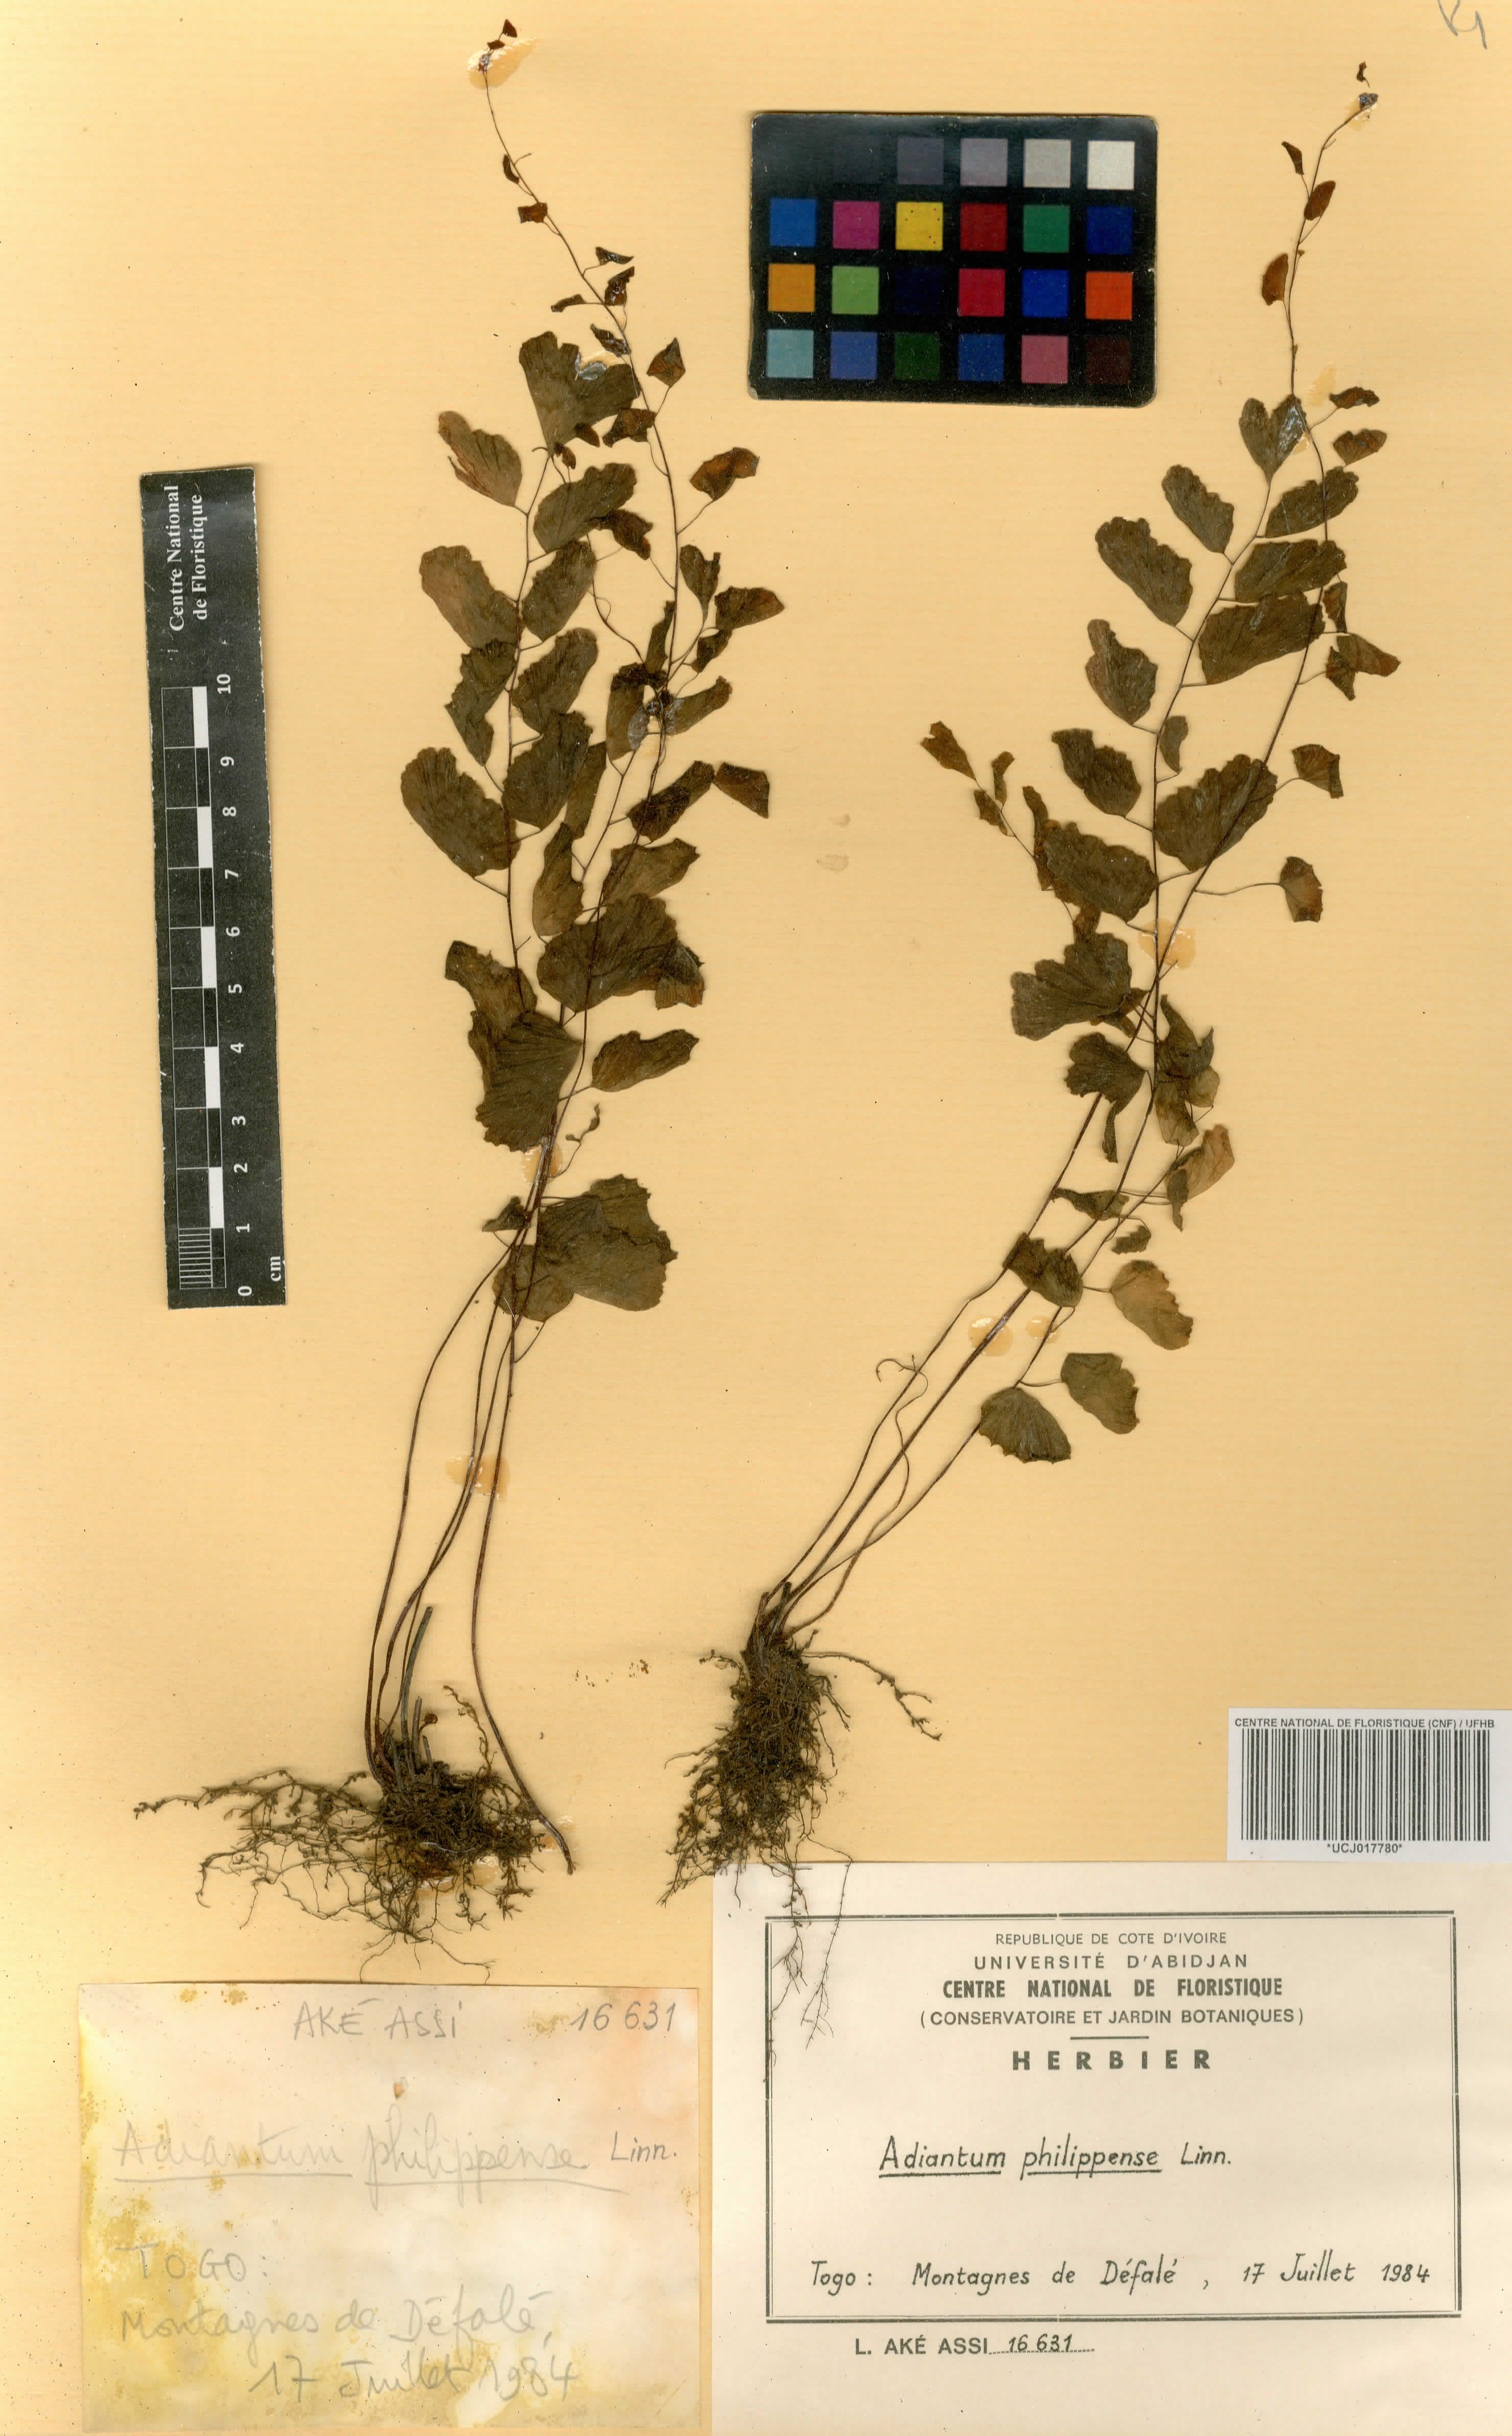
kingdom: Plantae
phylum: Tracheophyta
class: Polypodiopsida
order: Polypodiales
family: Pteridaceae
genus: Adiantum
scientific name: Adiantum philippense
